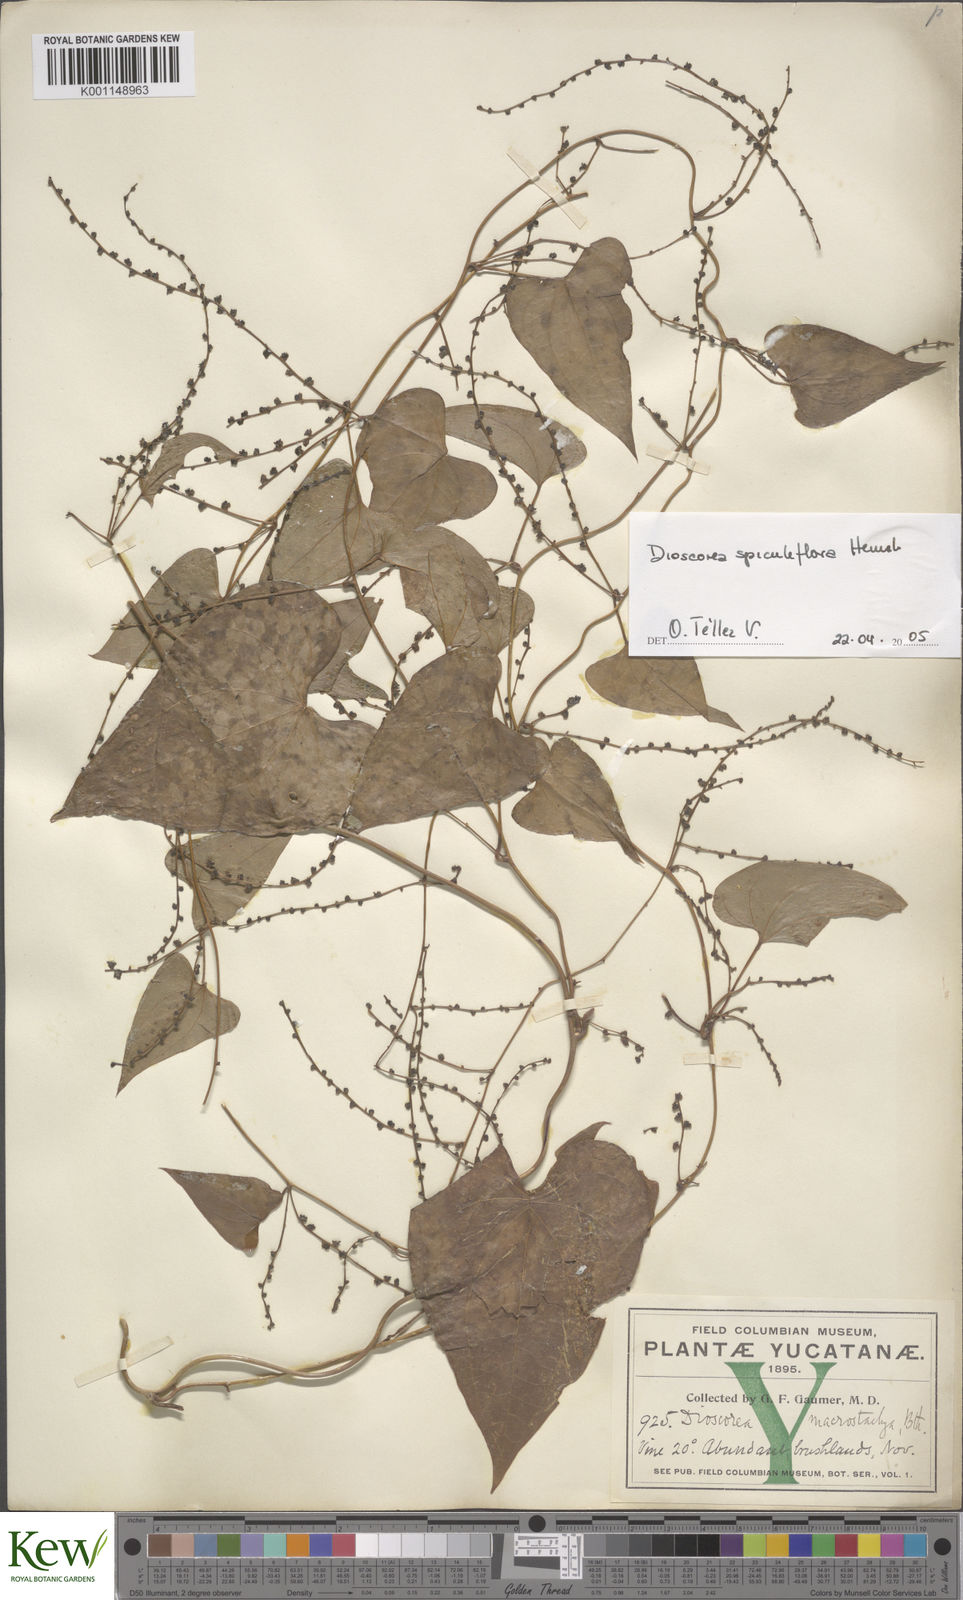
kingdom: Plantae
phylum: Tracheophyta
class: Liliopsida
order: Dioscoreales
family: Dioscoreaceae
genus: Dioscorea
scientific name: Dioscorea spiculiflora
